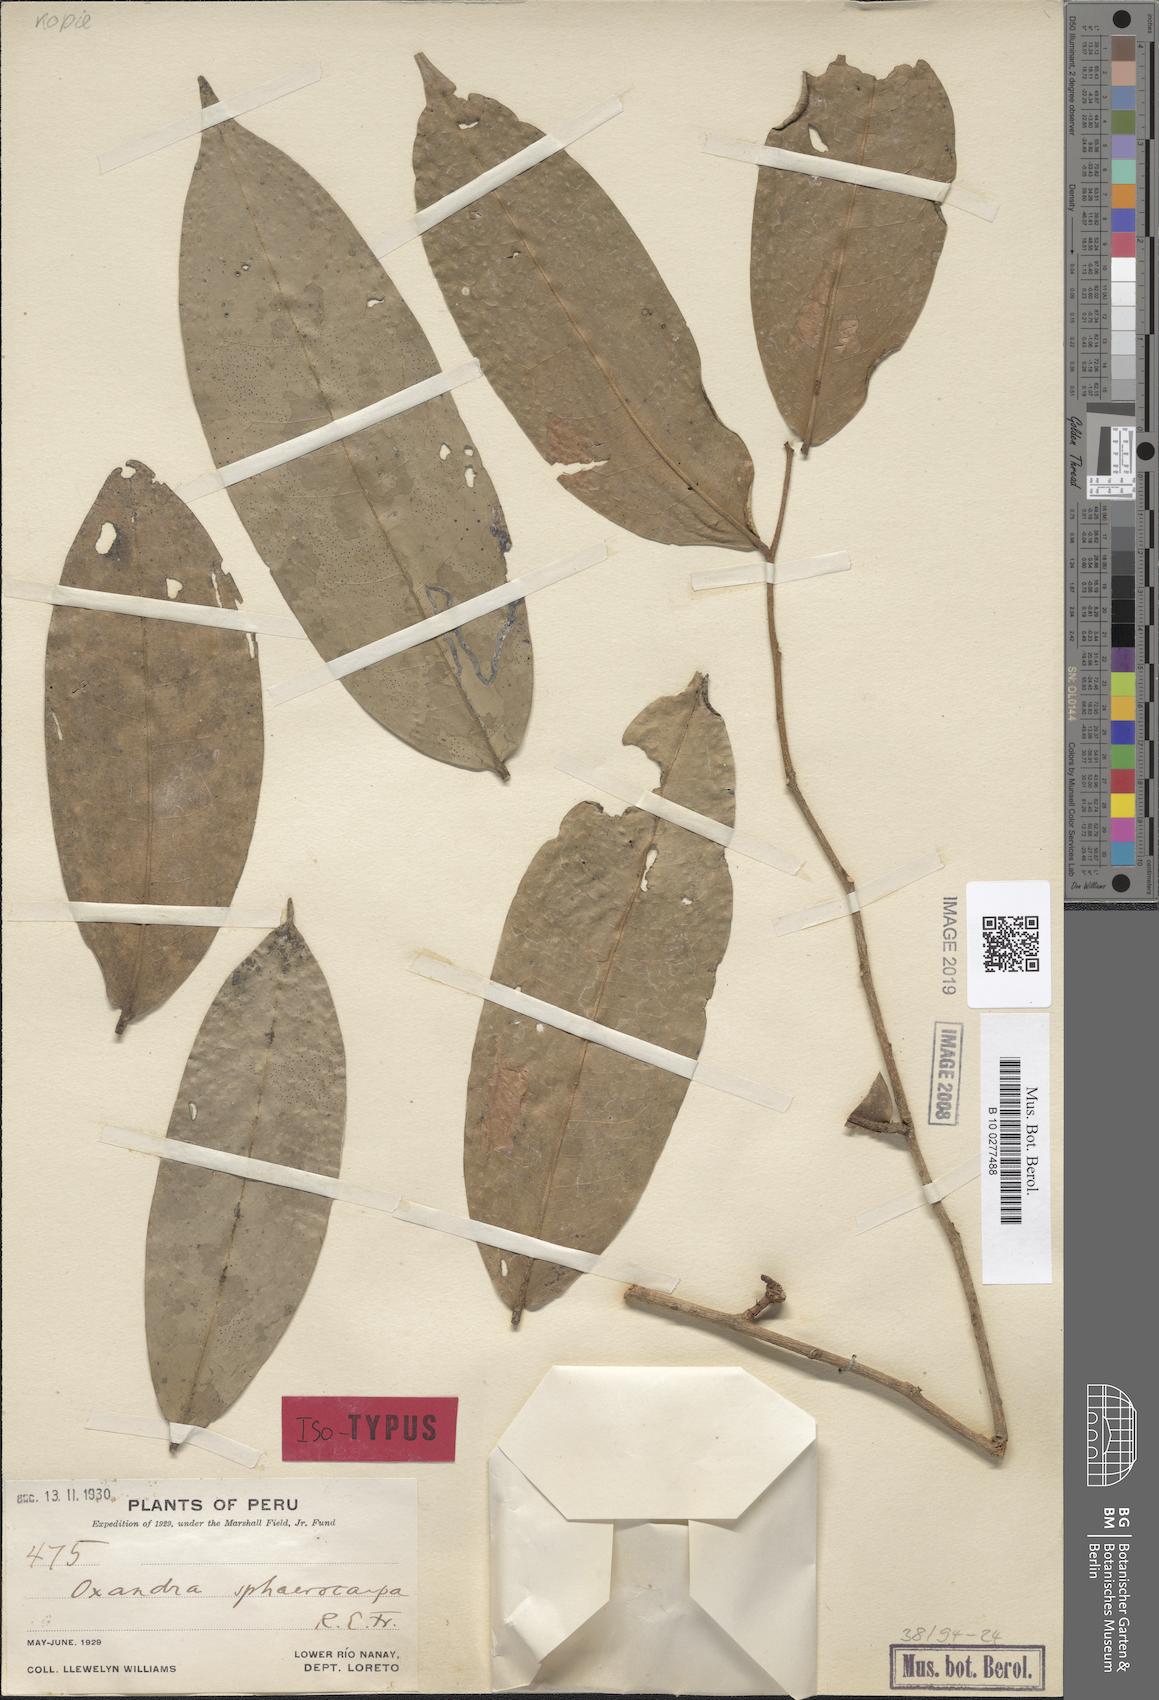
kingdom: Plantae
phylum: Tracheophyta
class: Magnoliopsida
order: Magnoliales
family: Annonaceae
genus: Oxandra
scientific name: Oxandra sphaerocarpa
